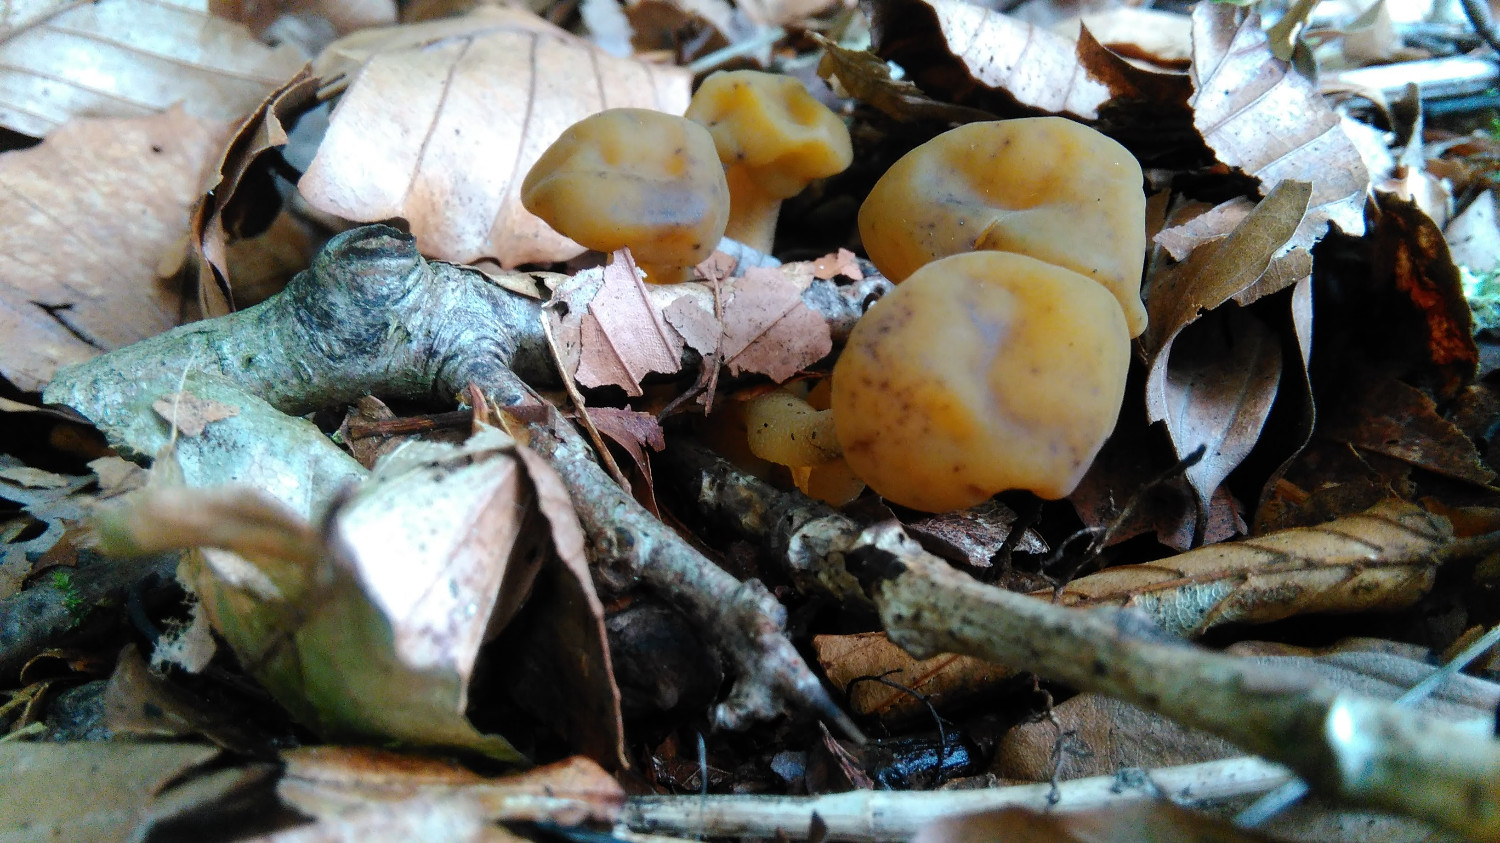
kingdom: Fungi
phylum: Ascomycota
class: Leotiomycetes
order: Leotiales
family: Leotiaceae
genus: Leotia
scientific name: Leotia lubrica
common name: ravsvamp
